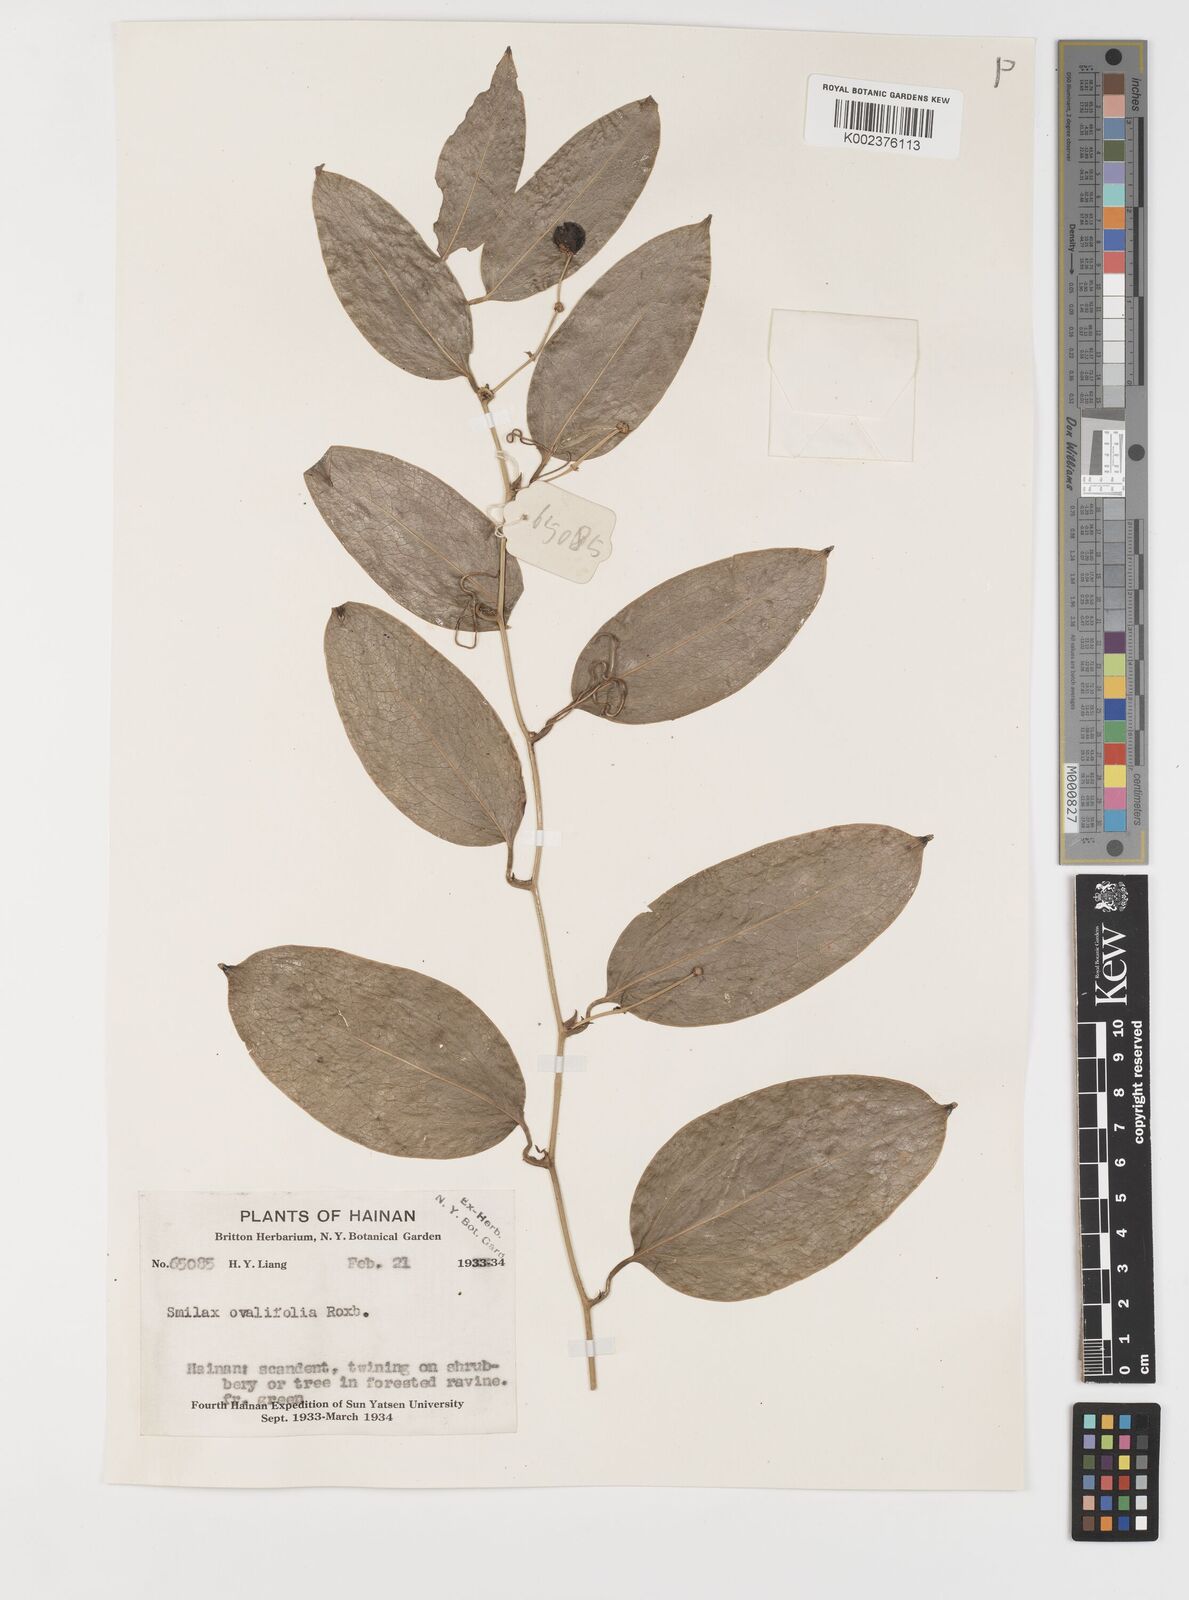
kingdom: Plantae
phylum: Tracheophyta
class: Liliopsida
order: Liliales
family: Smilacaceae
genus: Smilax
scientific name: Smilax ovalifolia
